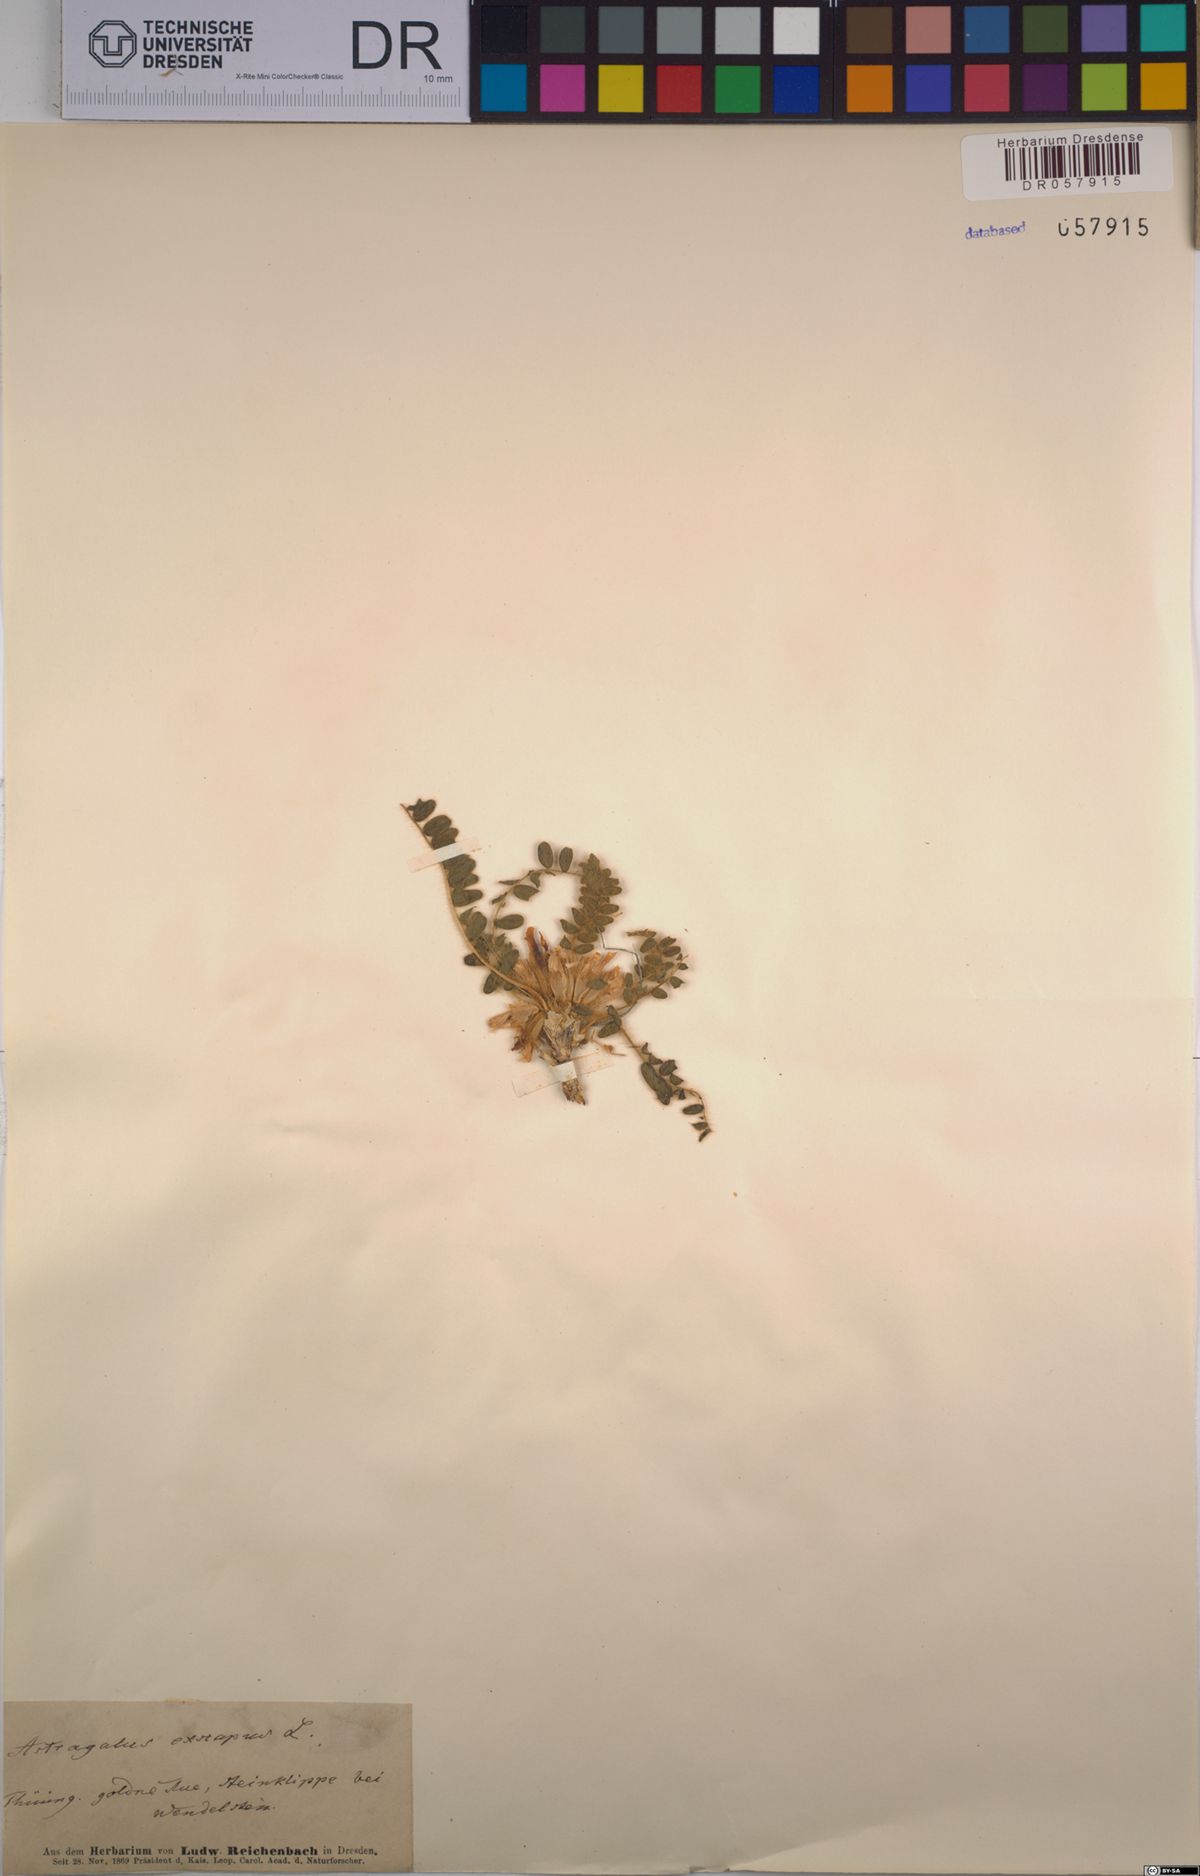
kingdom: Plantae
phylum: Tracheophyta
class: Magnoliopsida
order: Fabales
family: Fabaceae
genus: Astragalus
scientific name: Astragalus exscapus
